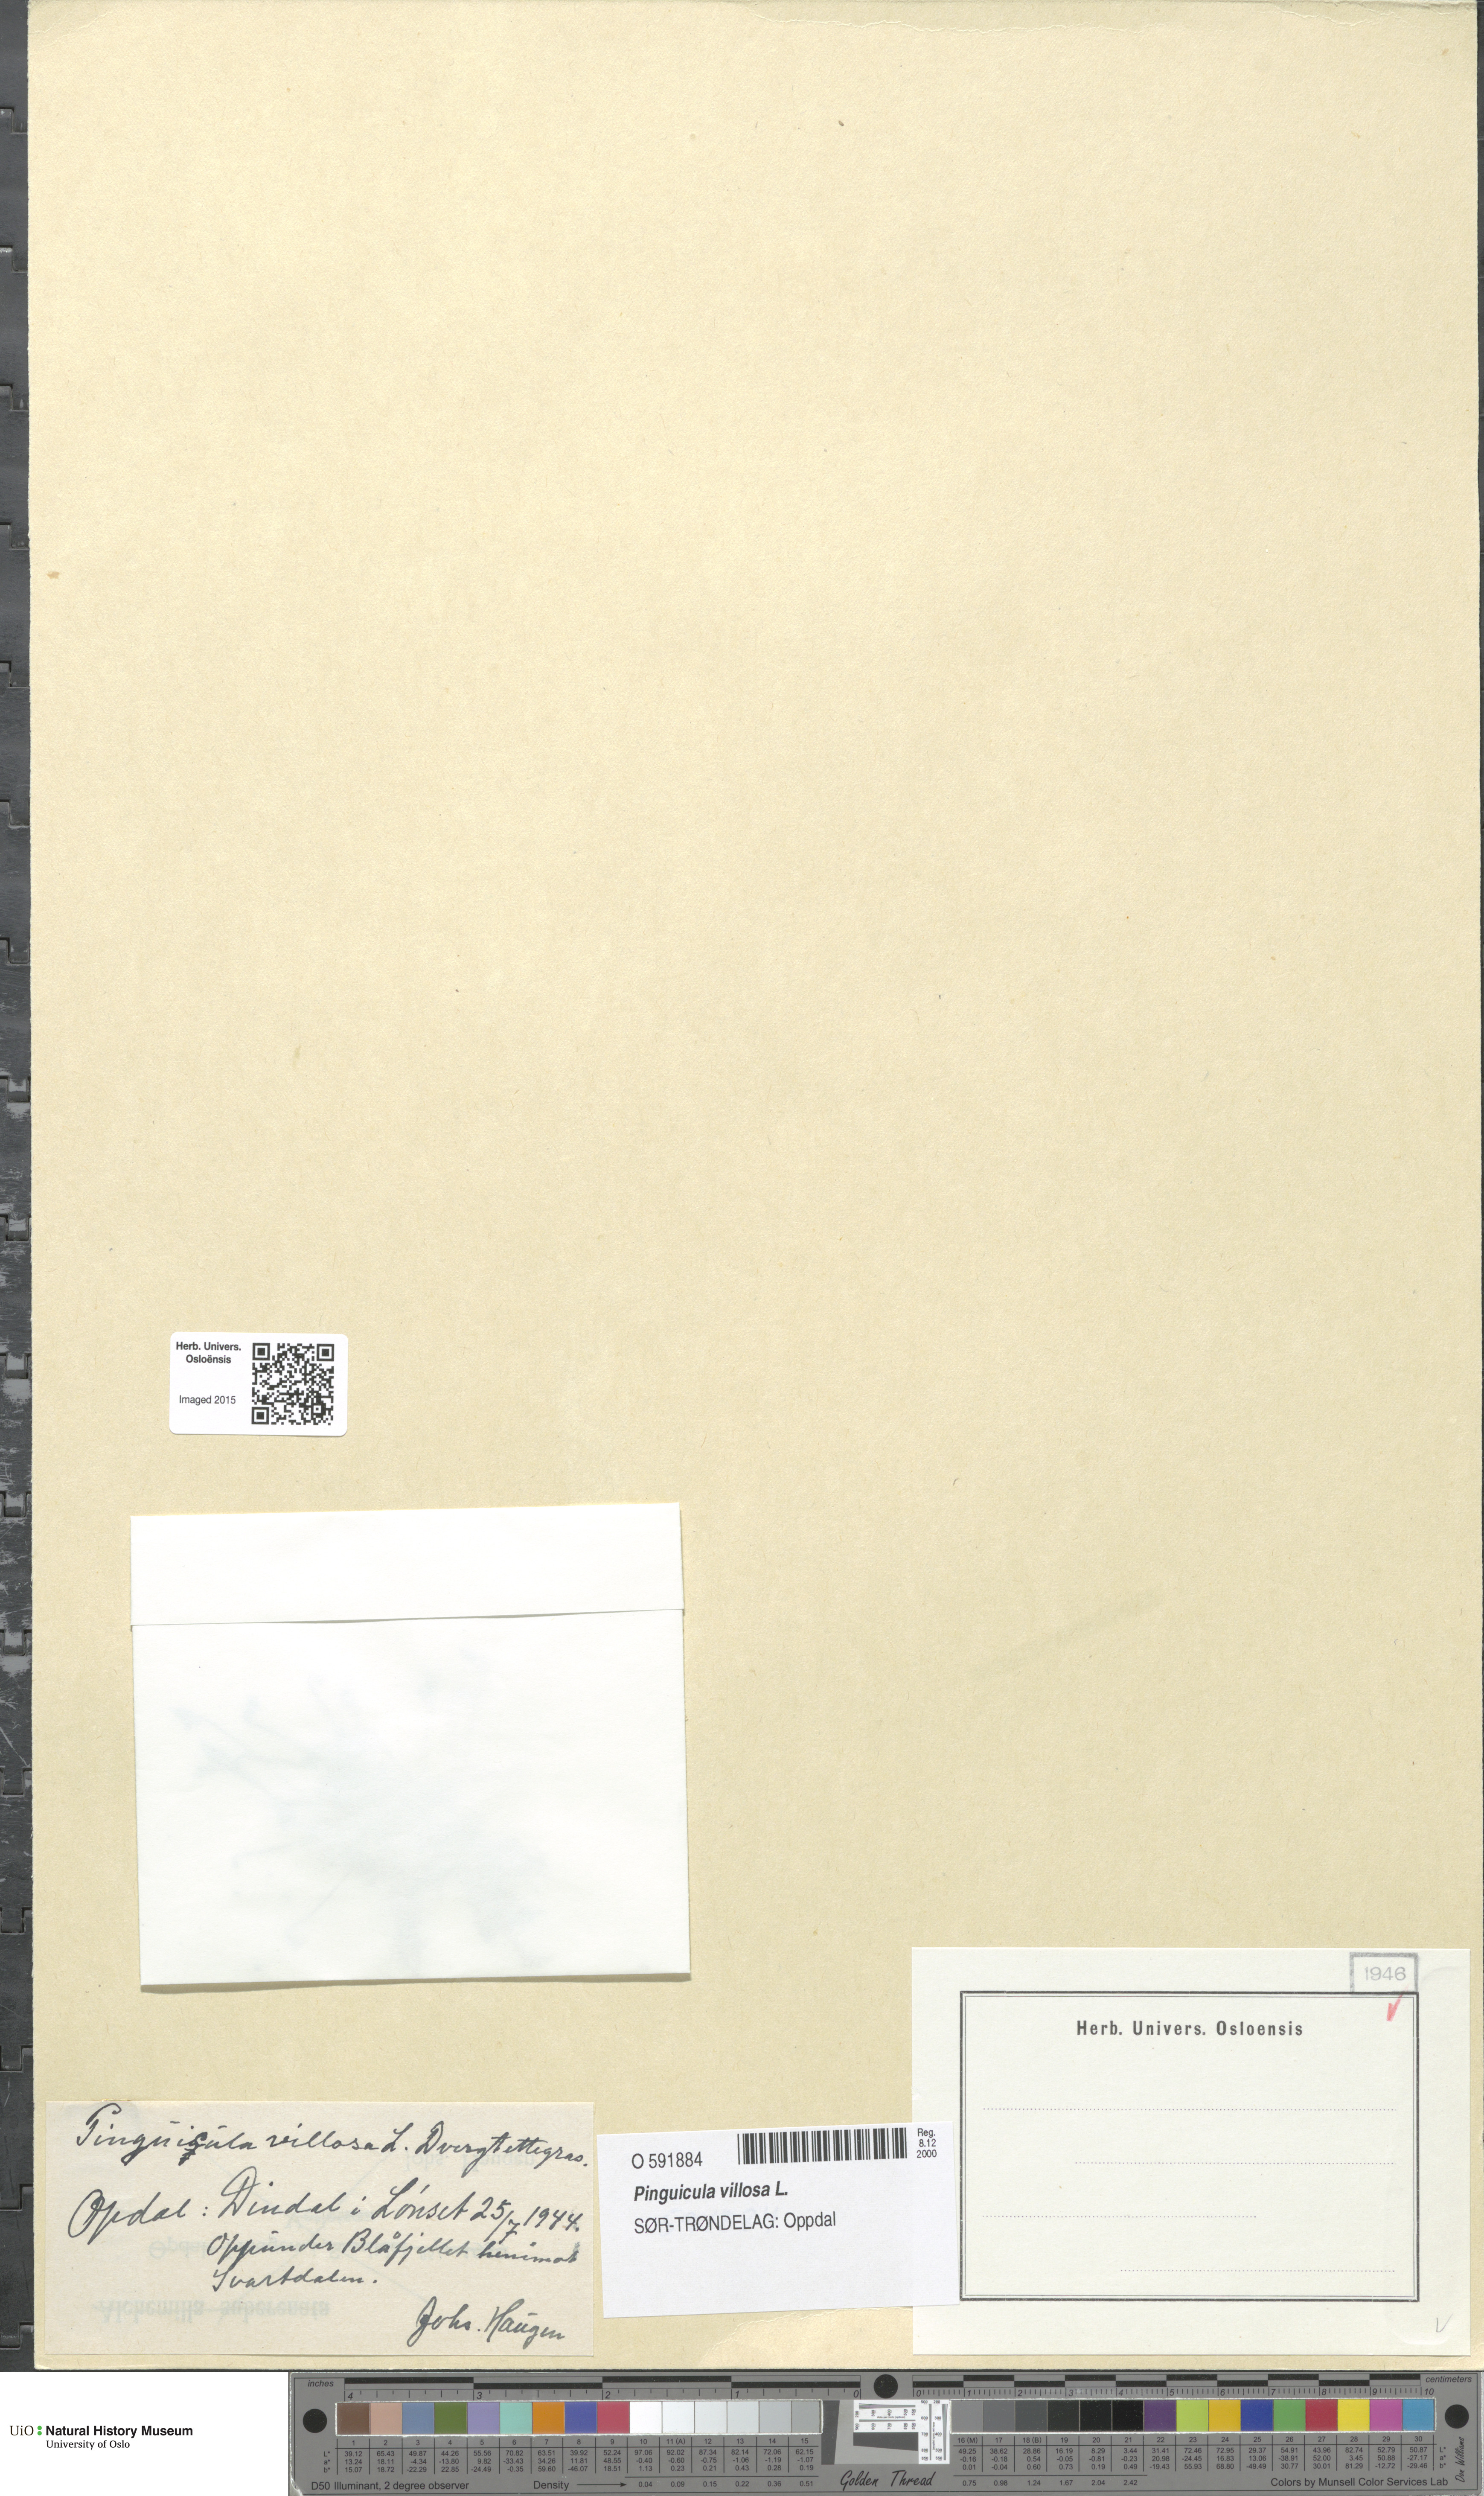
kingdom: Plantae
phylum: Tracheophyta
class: Magnoliopsida
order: Lamiales
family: Lentibulariaceae
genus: Pinguicula
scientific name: Pinguicula villosa
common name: Hairy butterwort
